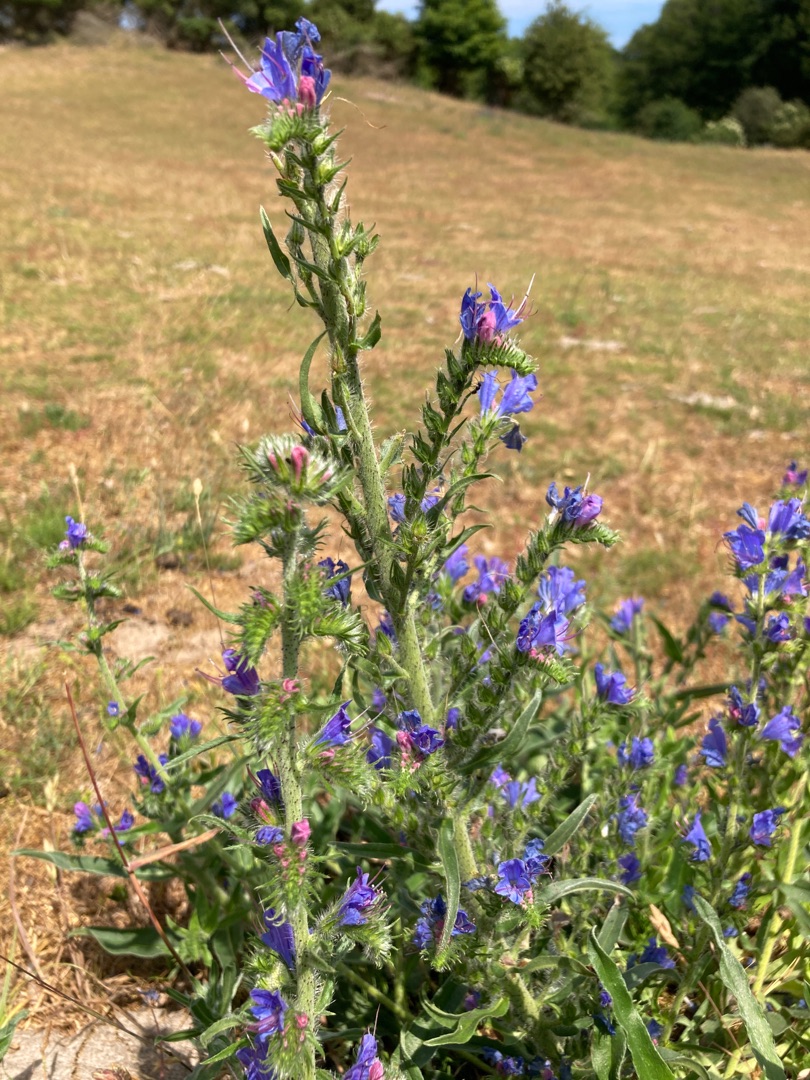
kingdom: Plantae
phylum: Tracheophyta
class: Magnoliopsida
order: Boraginales
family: Boraginaceae
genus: Echium
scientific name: Echium vulgare
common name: Slangehoved
